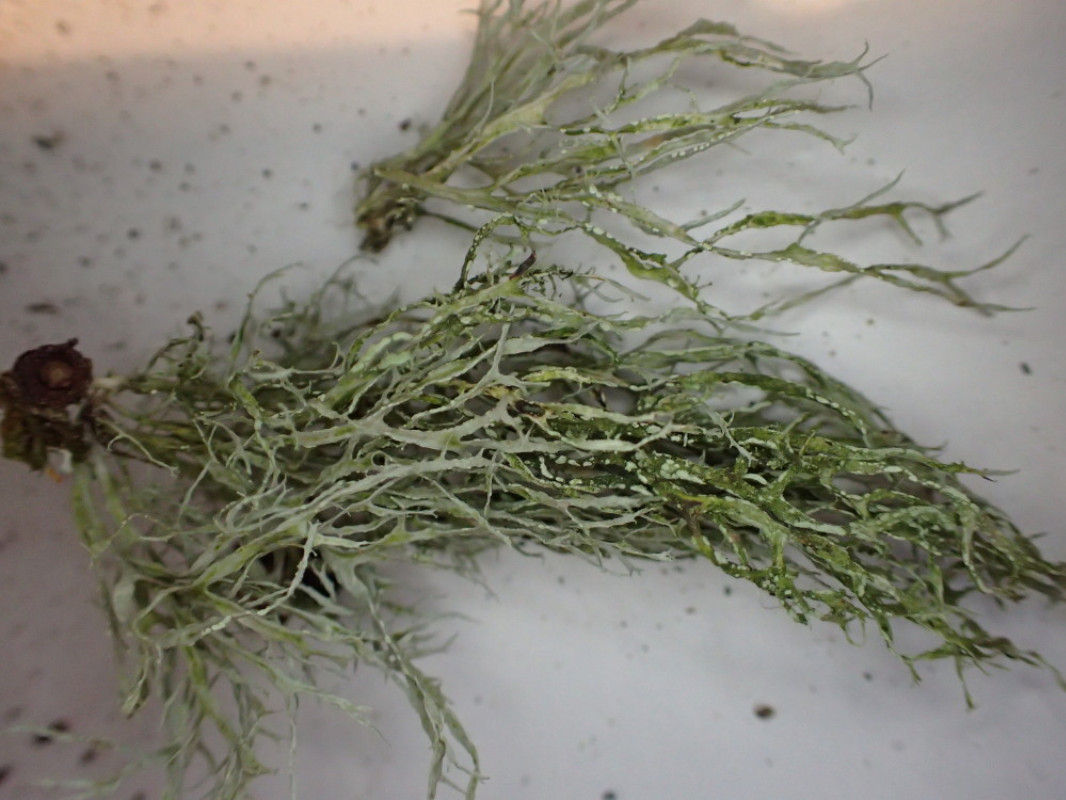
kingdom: Fungi
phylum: Ascomycota
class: Lecanoromycetes
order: Lecanorales
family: Ramalinaceae
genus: Ramalina
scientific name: Ramalina farinacea
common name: melet grenlav
